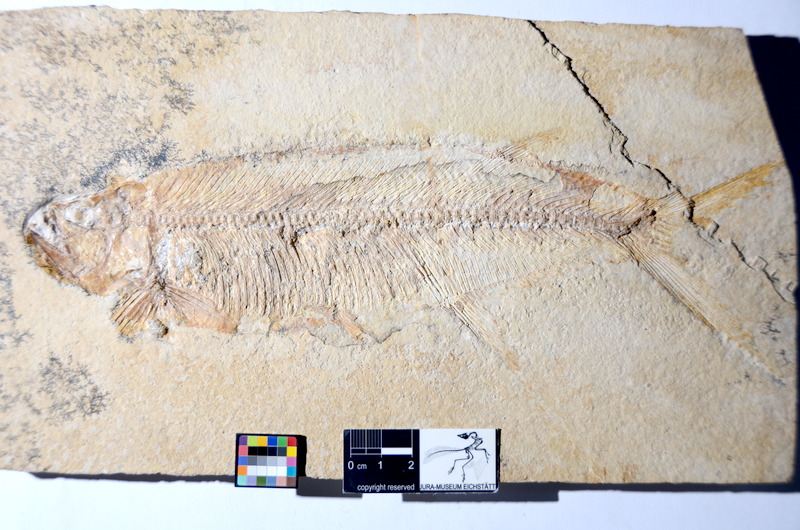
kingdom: Animalia
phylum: Chordata
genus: Thrissops
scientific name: Thrissops subovatus
